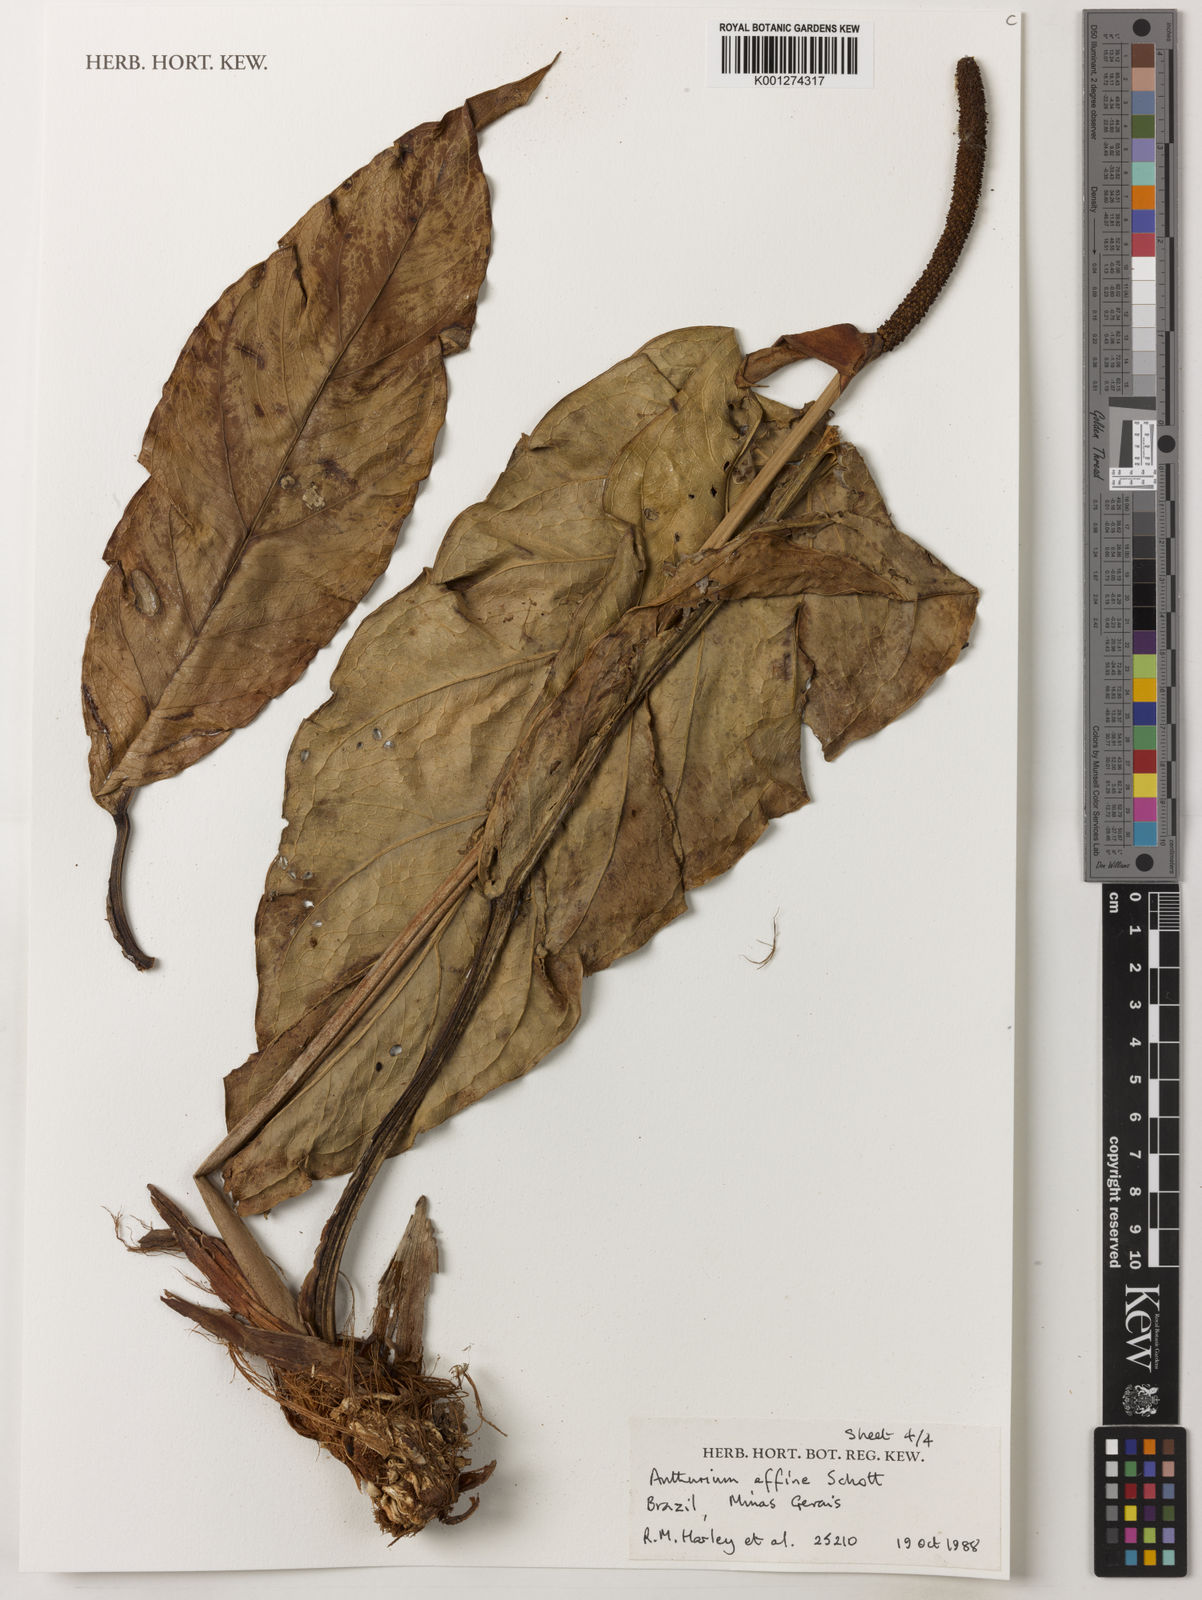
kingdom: Plantae
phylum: Tracheophyta
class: Liliopsida
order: Alismatales
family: Araceae
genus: Anthurium
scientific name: Anthurium affine
